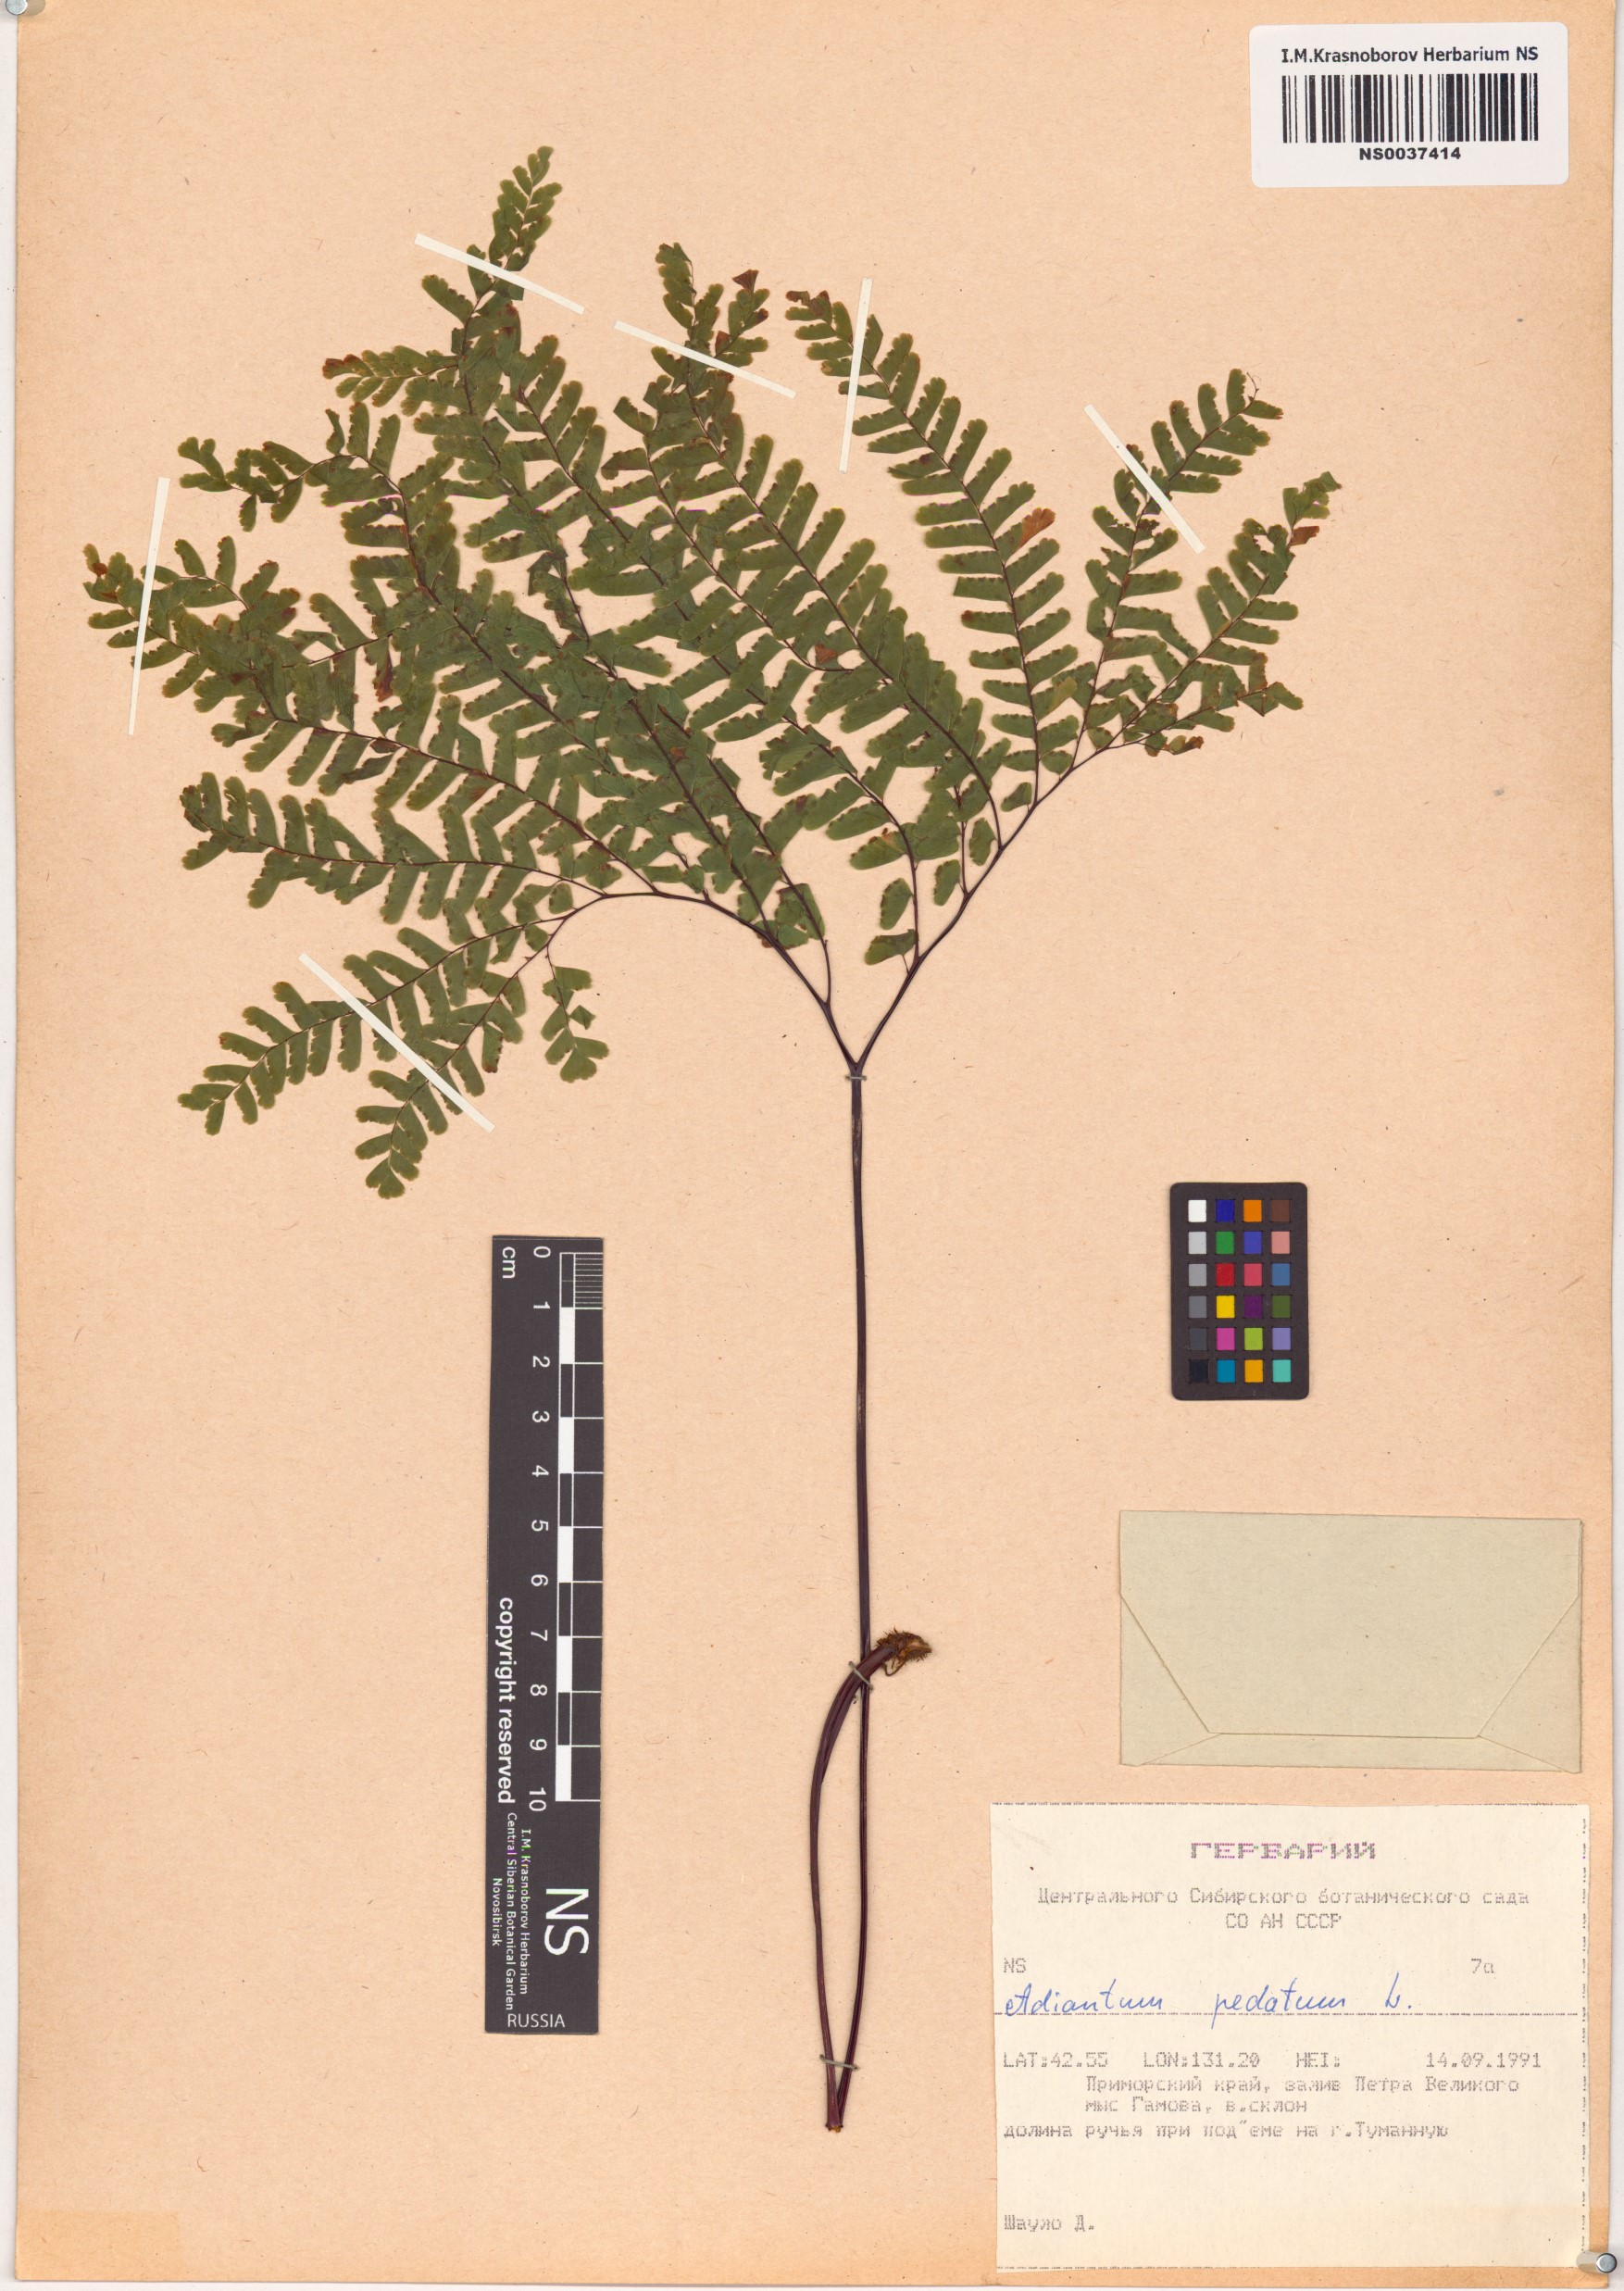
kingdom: Plantae
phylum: Tracheophyta
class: Polypodiopsida
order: Polypodiales
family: Pteridaceae
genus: Adiantum
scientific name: Adiantum pedatum
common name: Five-finger fern
